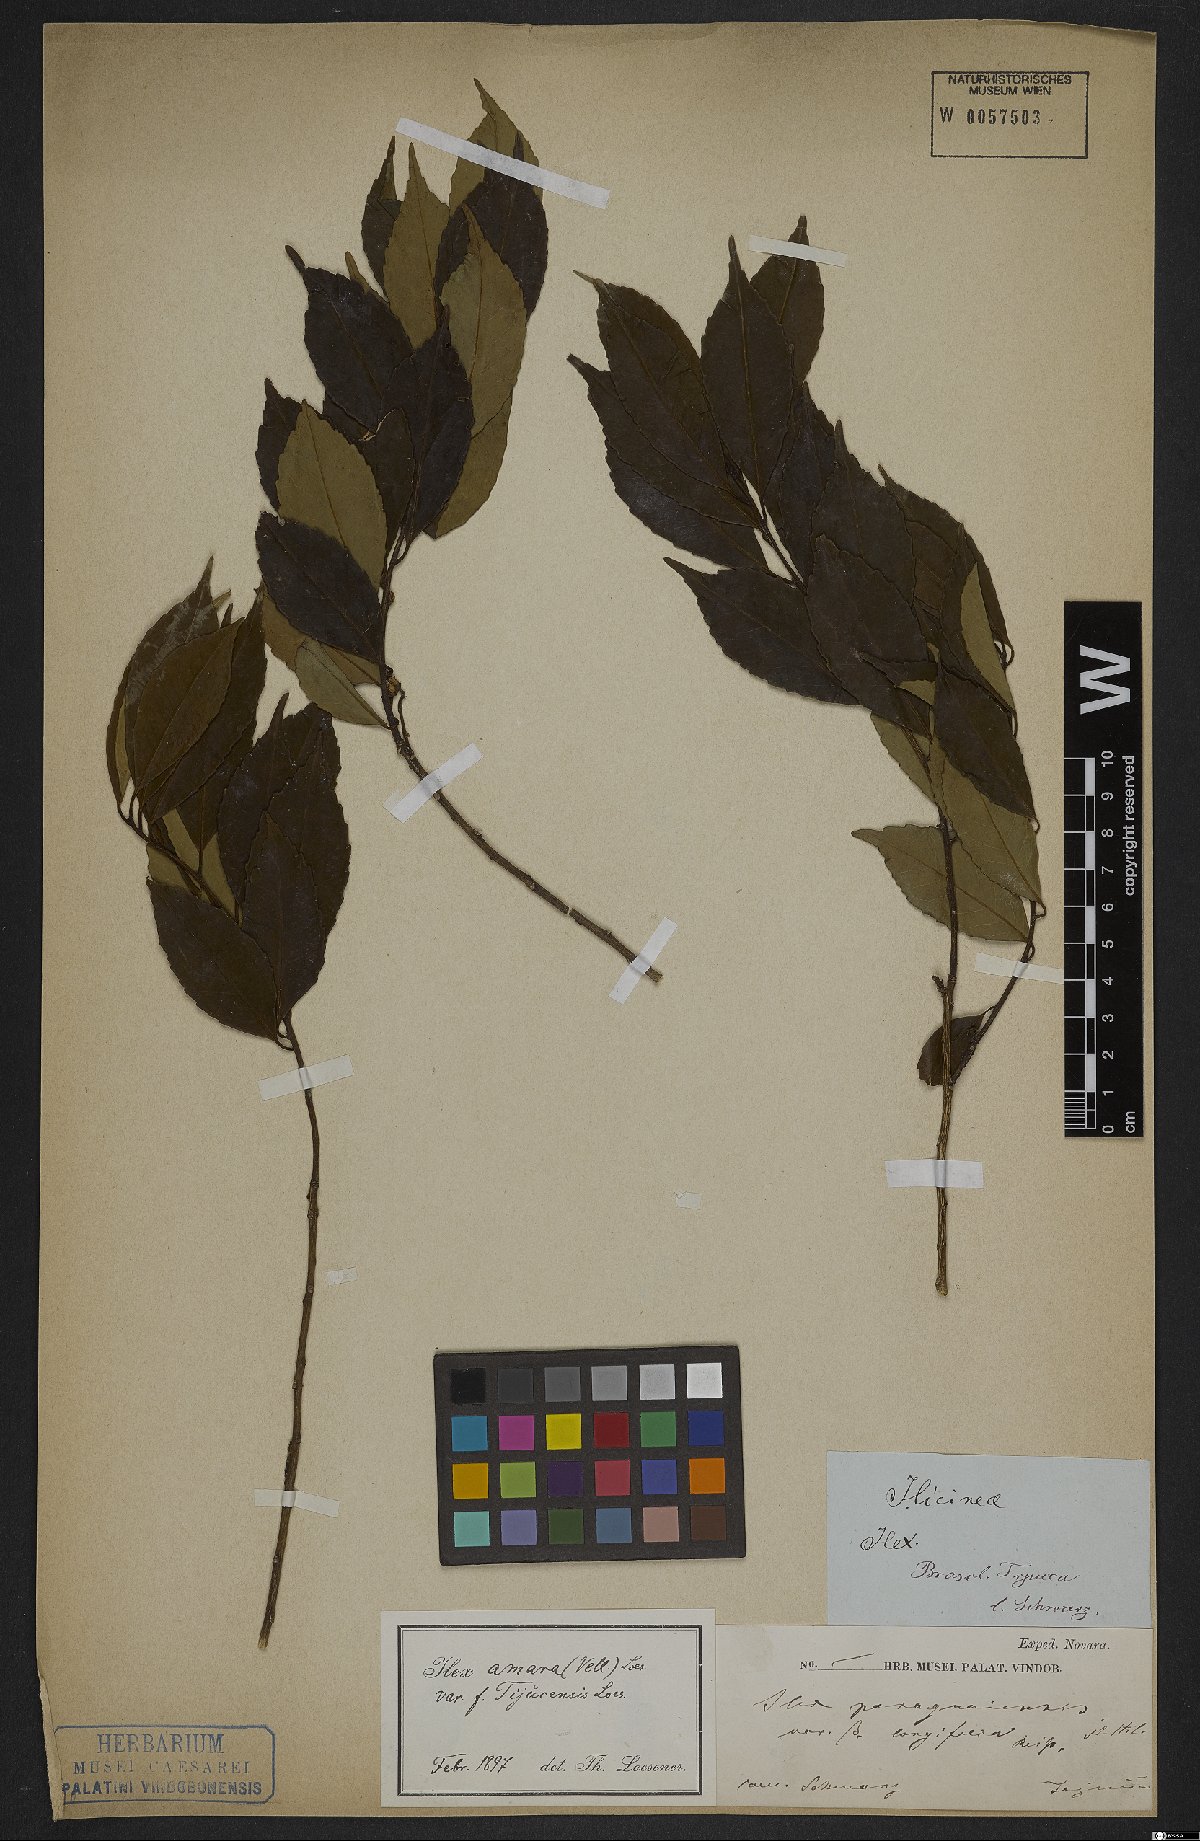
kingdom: Plantae
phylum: Tracheophyta
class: Magnoliopsida
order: Aquifoliales
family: Aquifoliaceae
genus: Ilex
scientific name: Ilex dumosa
